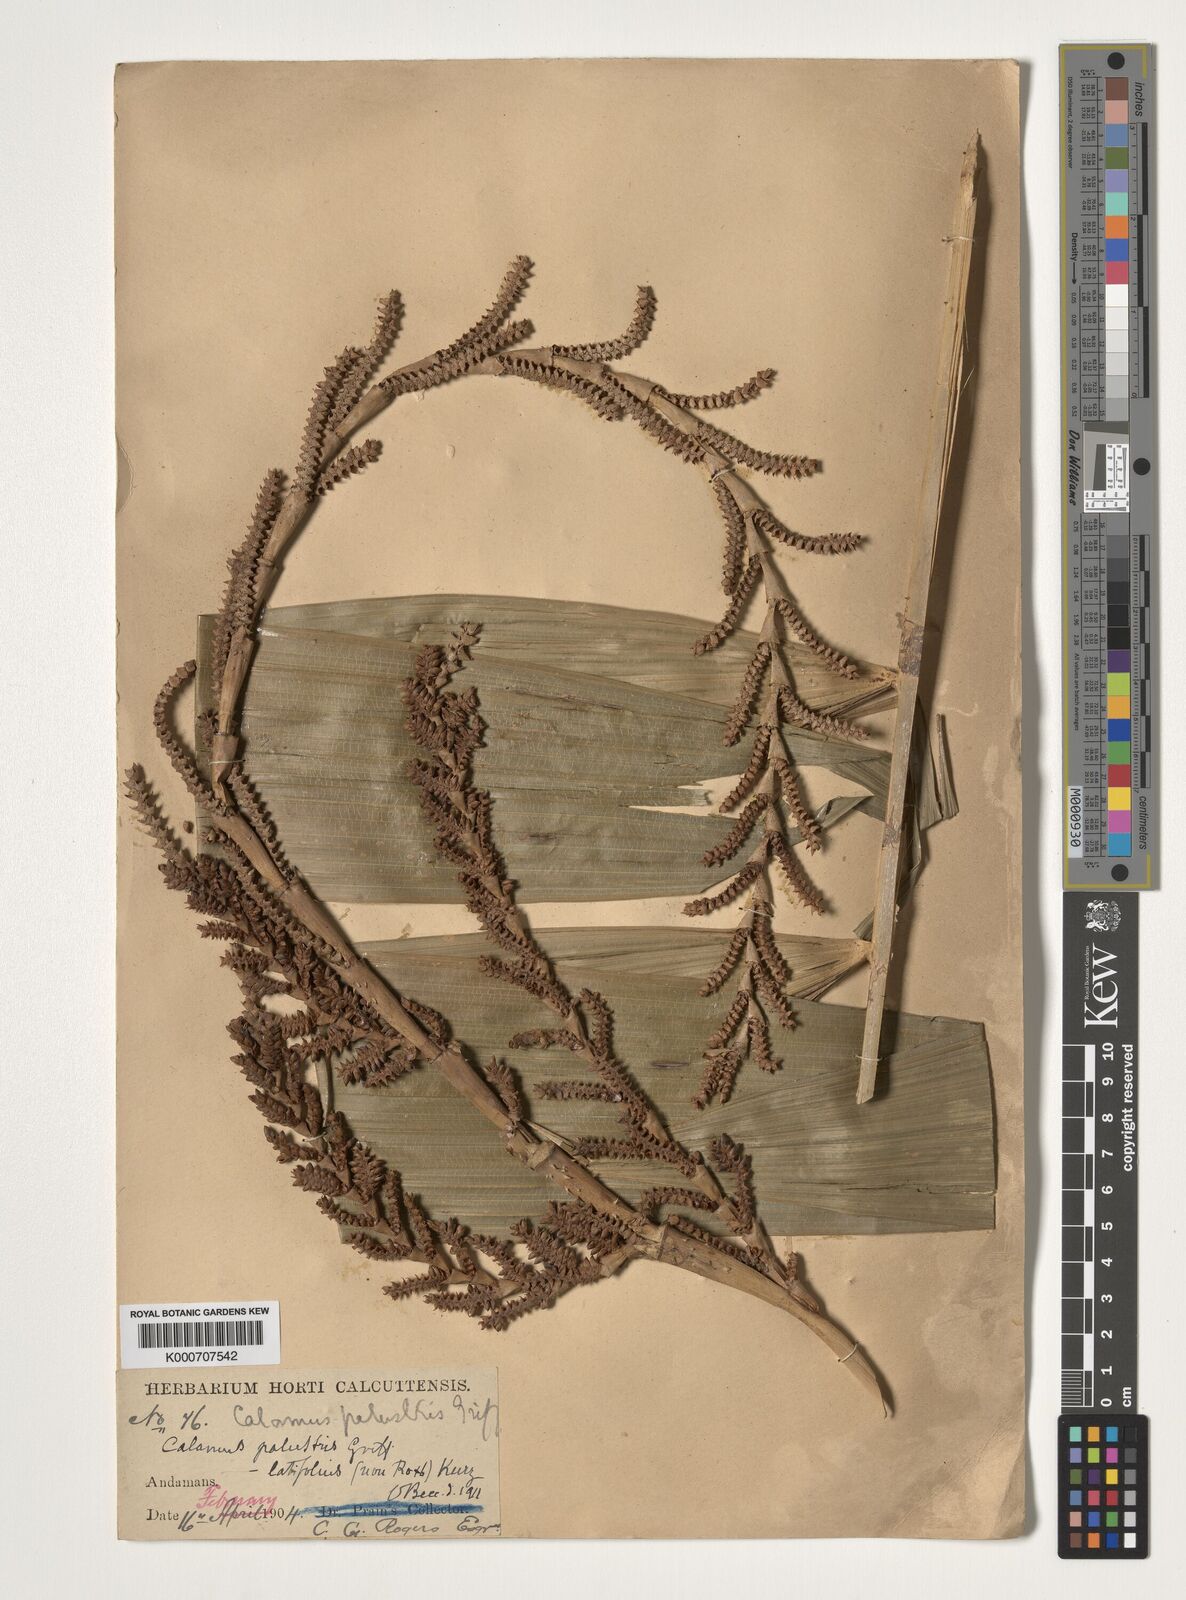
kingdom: Plantae
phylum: Tracheophyta
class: Liliopsida
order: Arecales
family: Arecaceae
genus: Calamus
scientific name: Calamus latifolius
